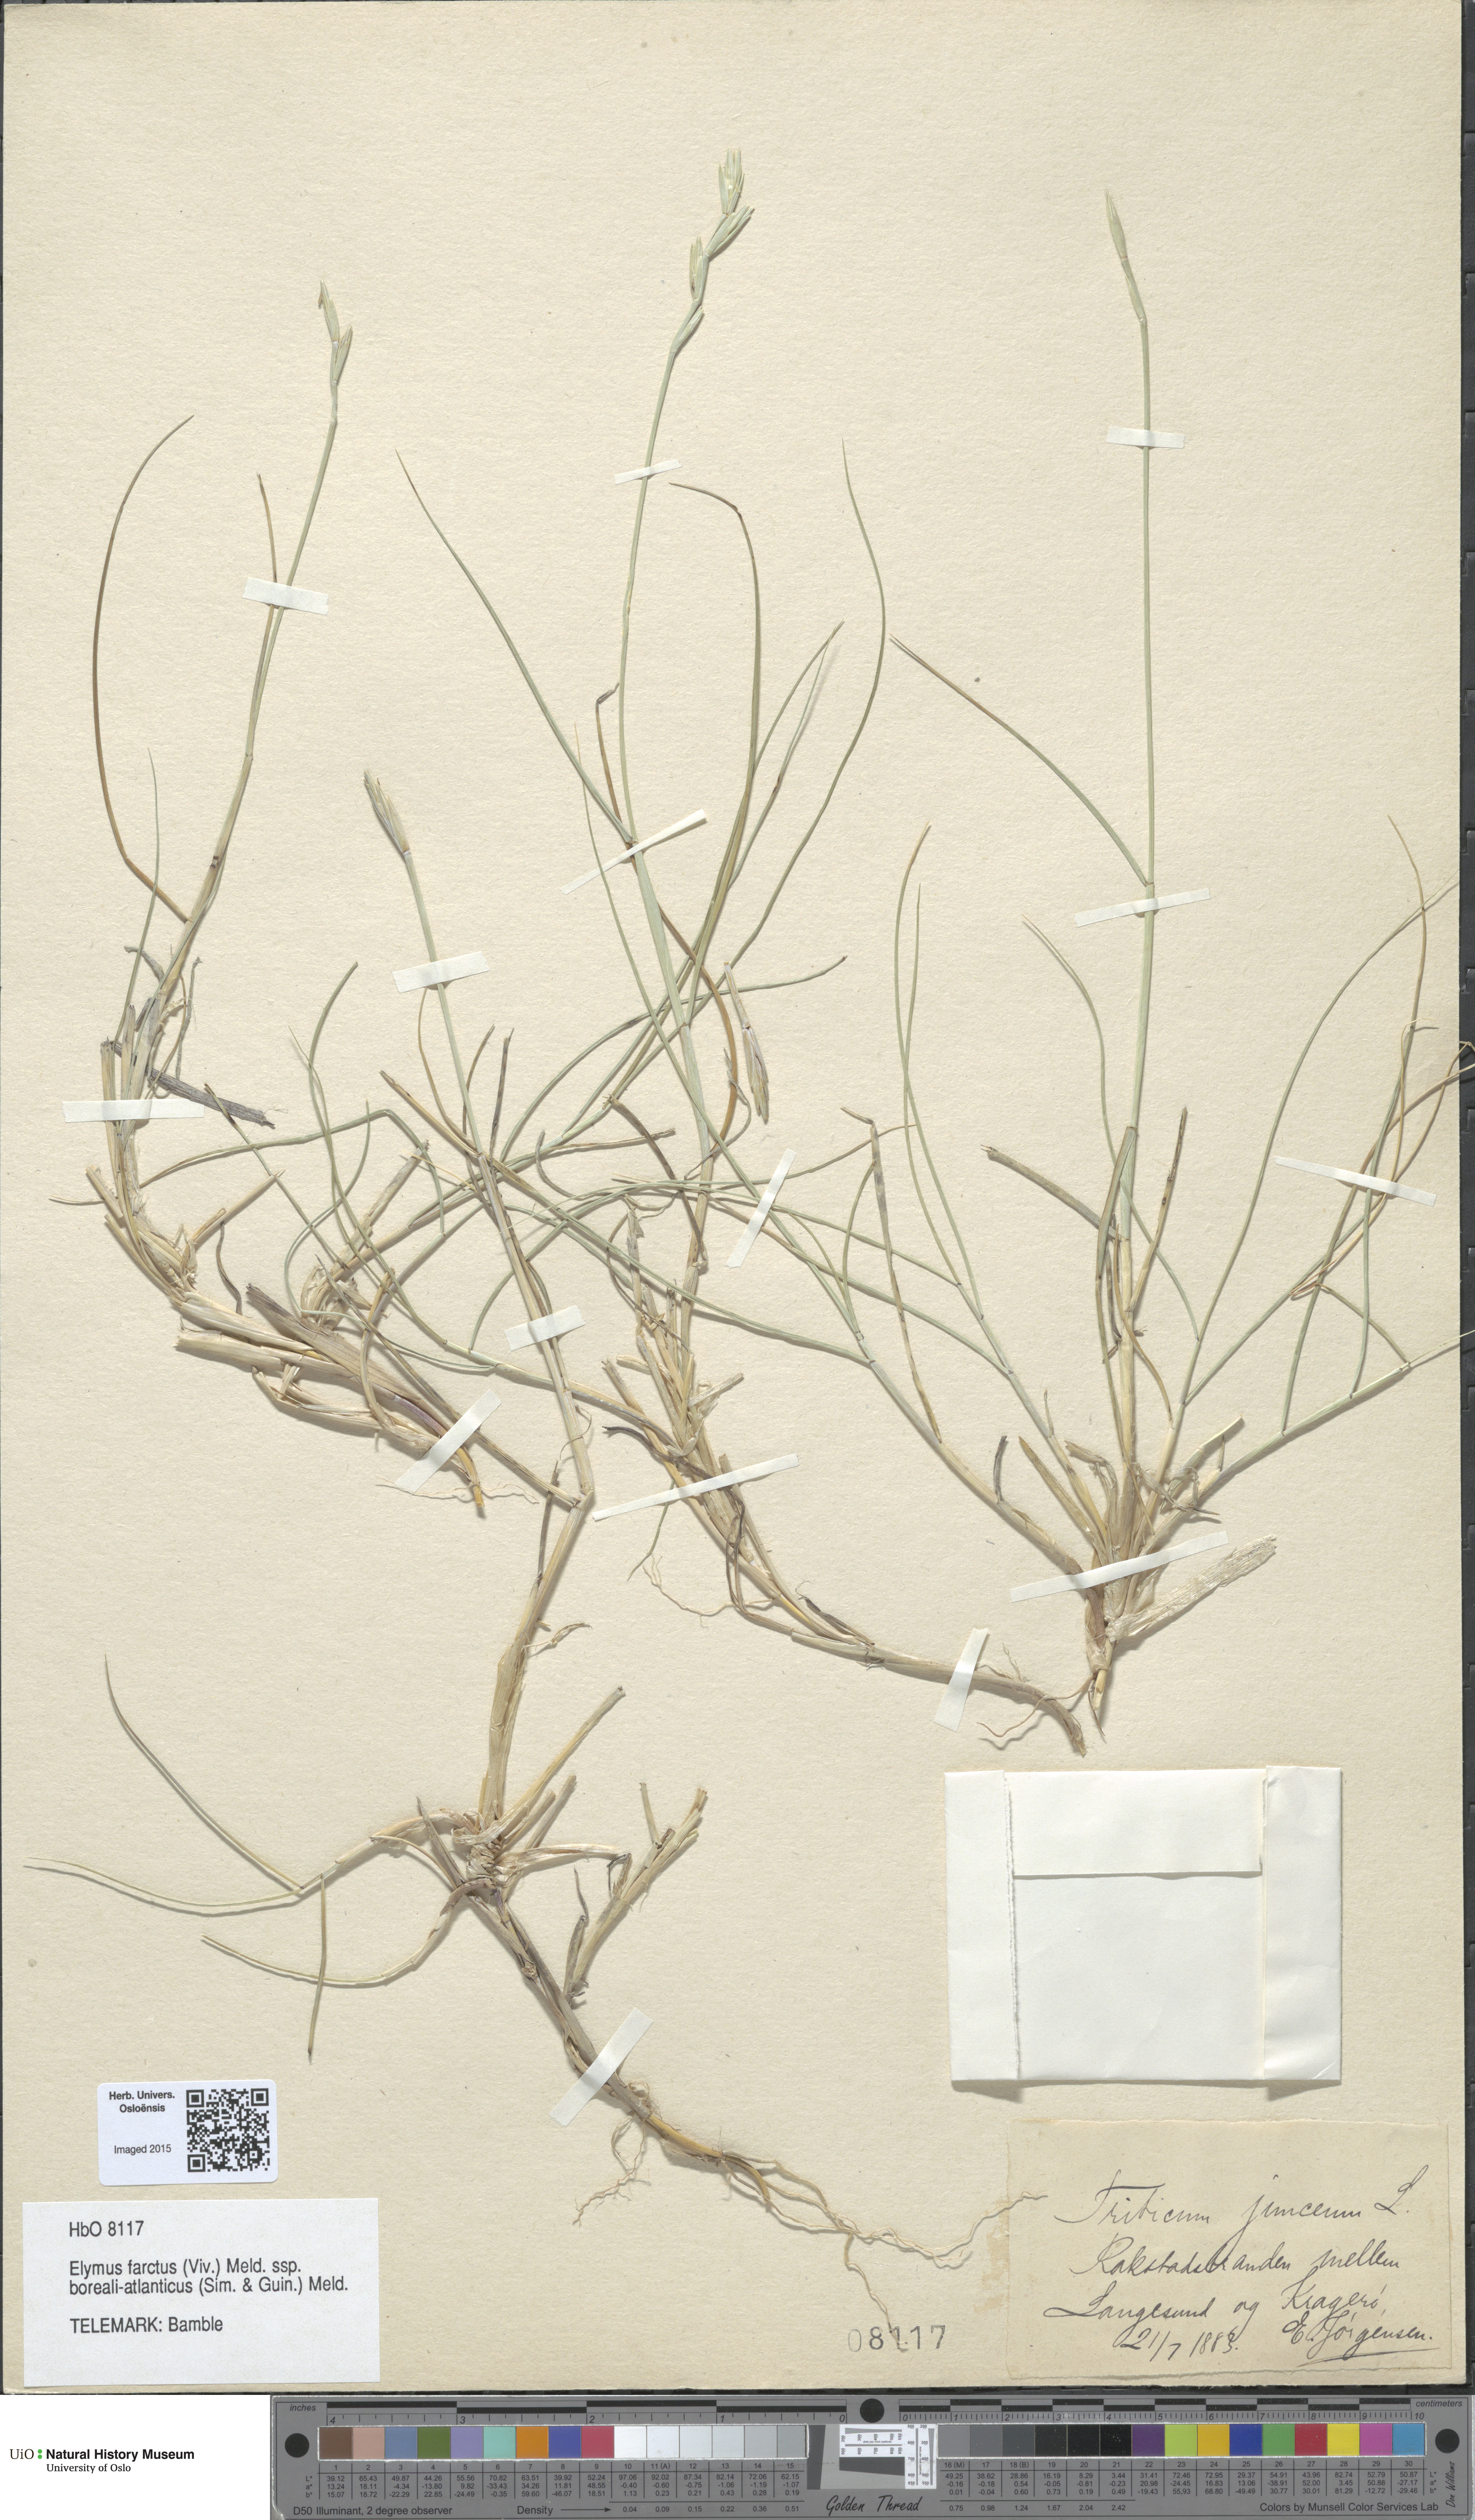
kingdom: Plantae
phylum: Tracheophyta
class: Liliopsida
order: Poales
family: Poaceae
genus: Thinopyrum
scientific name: Thinopyrum junceiforme
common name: Sea couch
